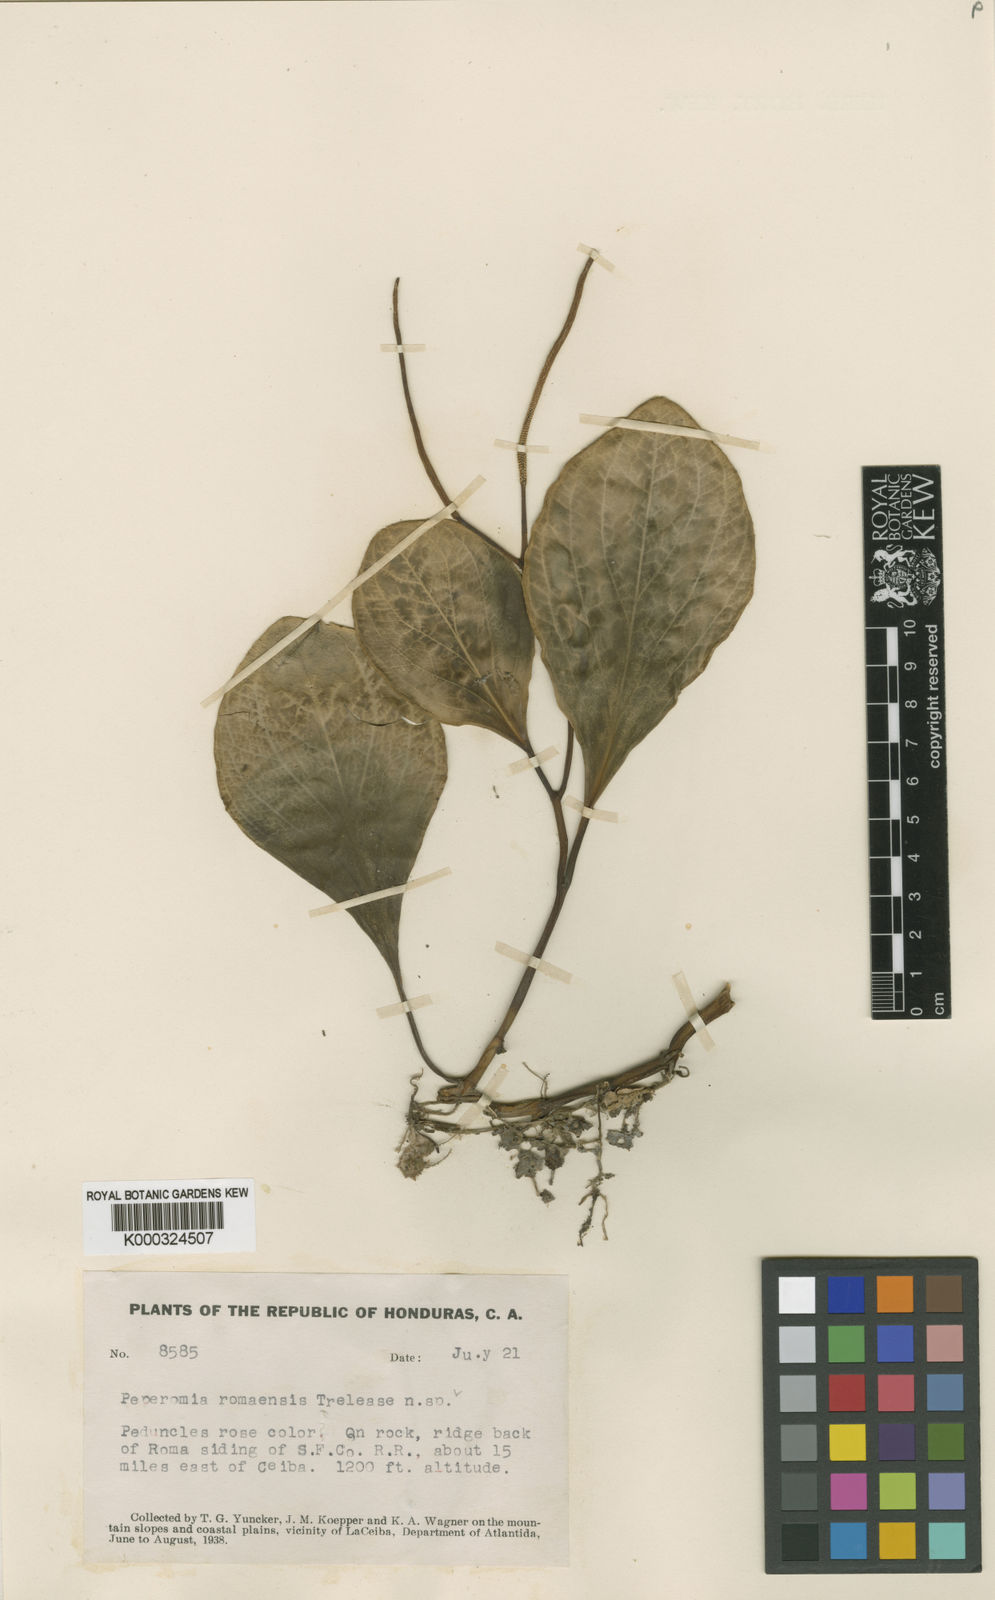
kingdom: Plantae
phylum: Tracheophyta
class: Magnoliopsida
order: Piperales
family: Piperaceae
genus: Peperomia
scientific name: Peperomia magnoliifolia
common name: Spoonleaf peperomia
